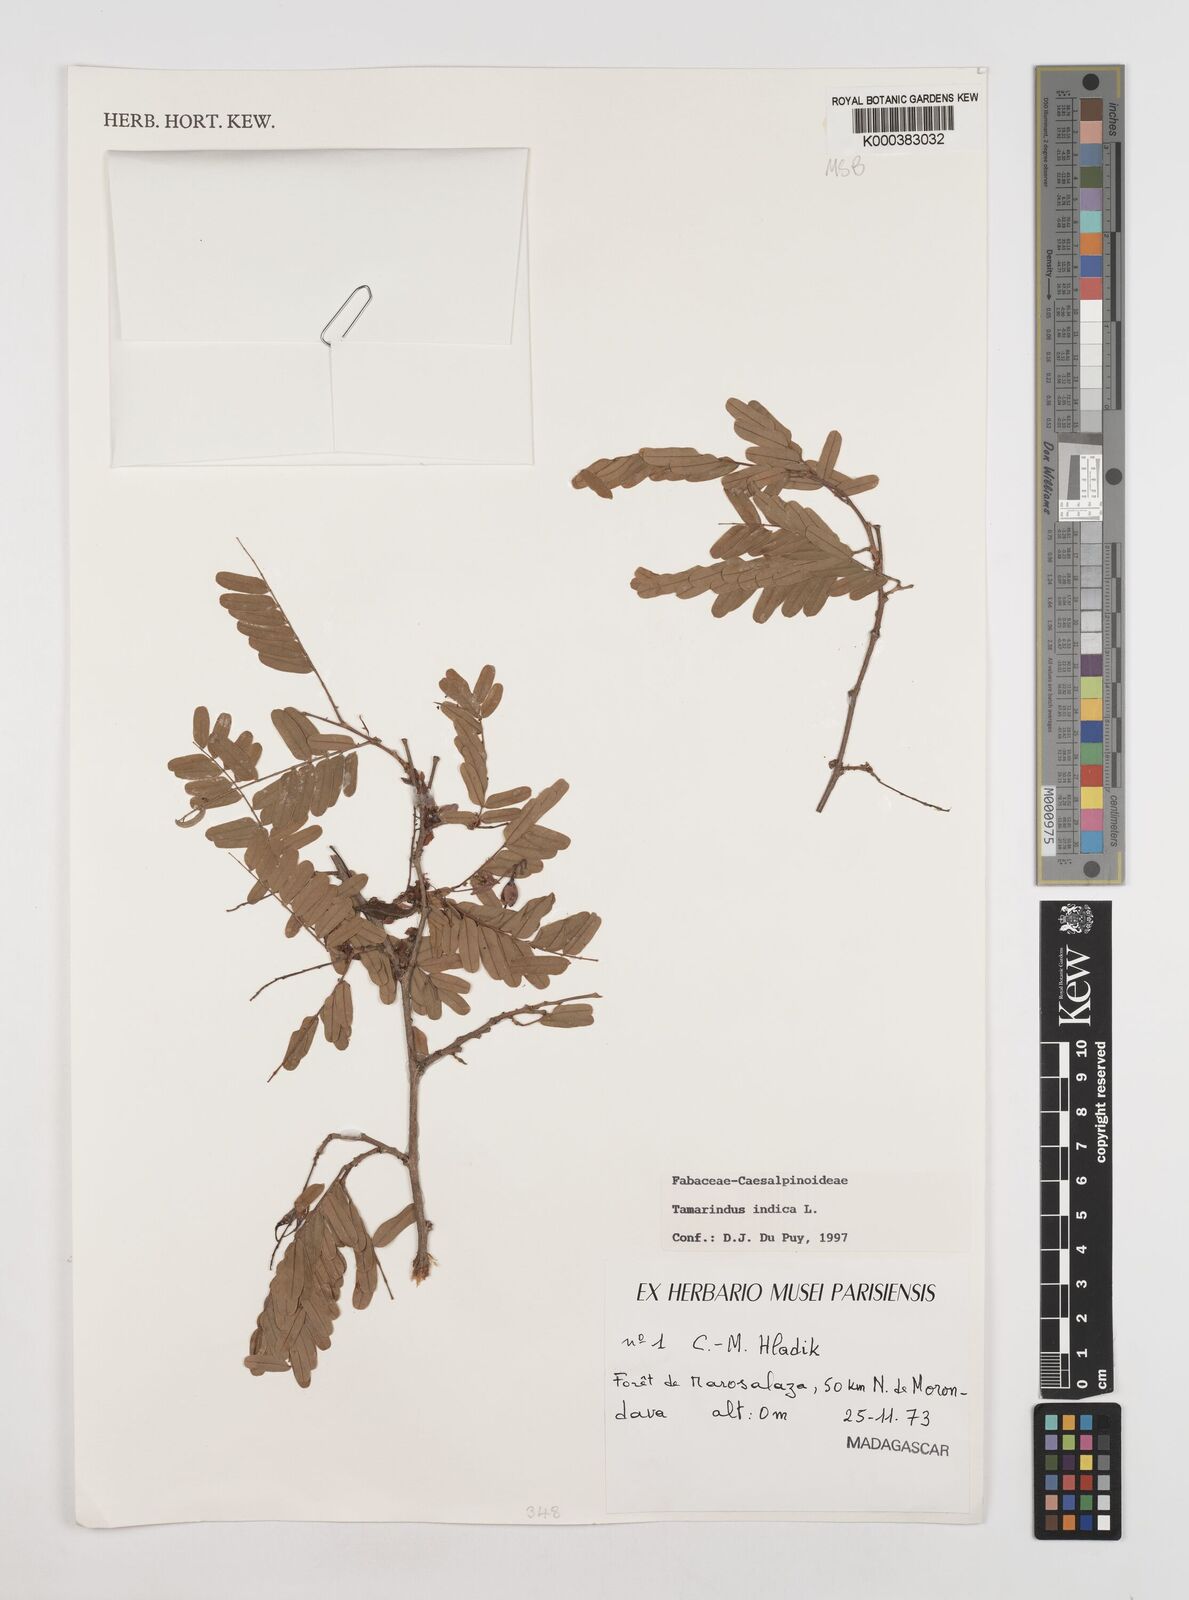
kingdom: Plantae
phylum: Tracheophyta
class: Magnoliopsida
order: Fabales
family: Fabaceae
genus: Tamarindus
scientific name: Tamarindus indica
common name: Tamarind
